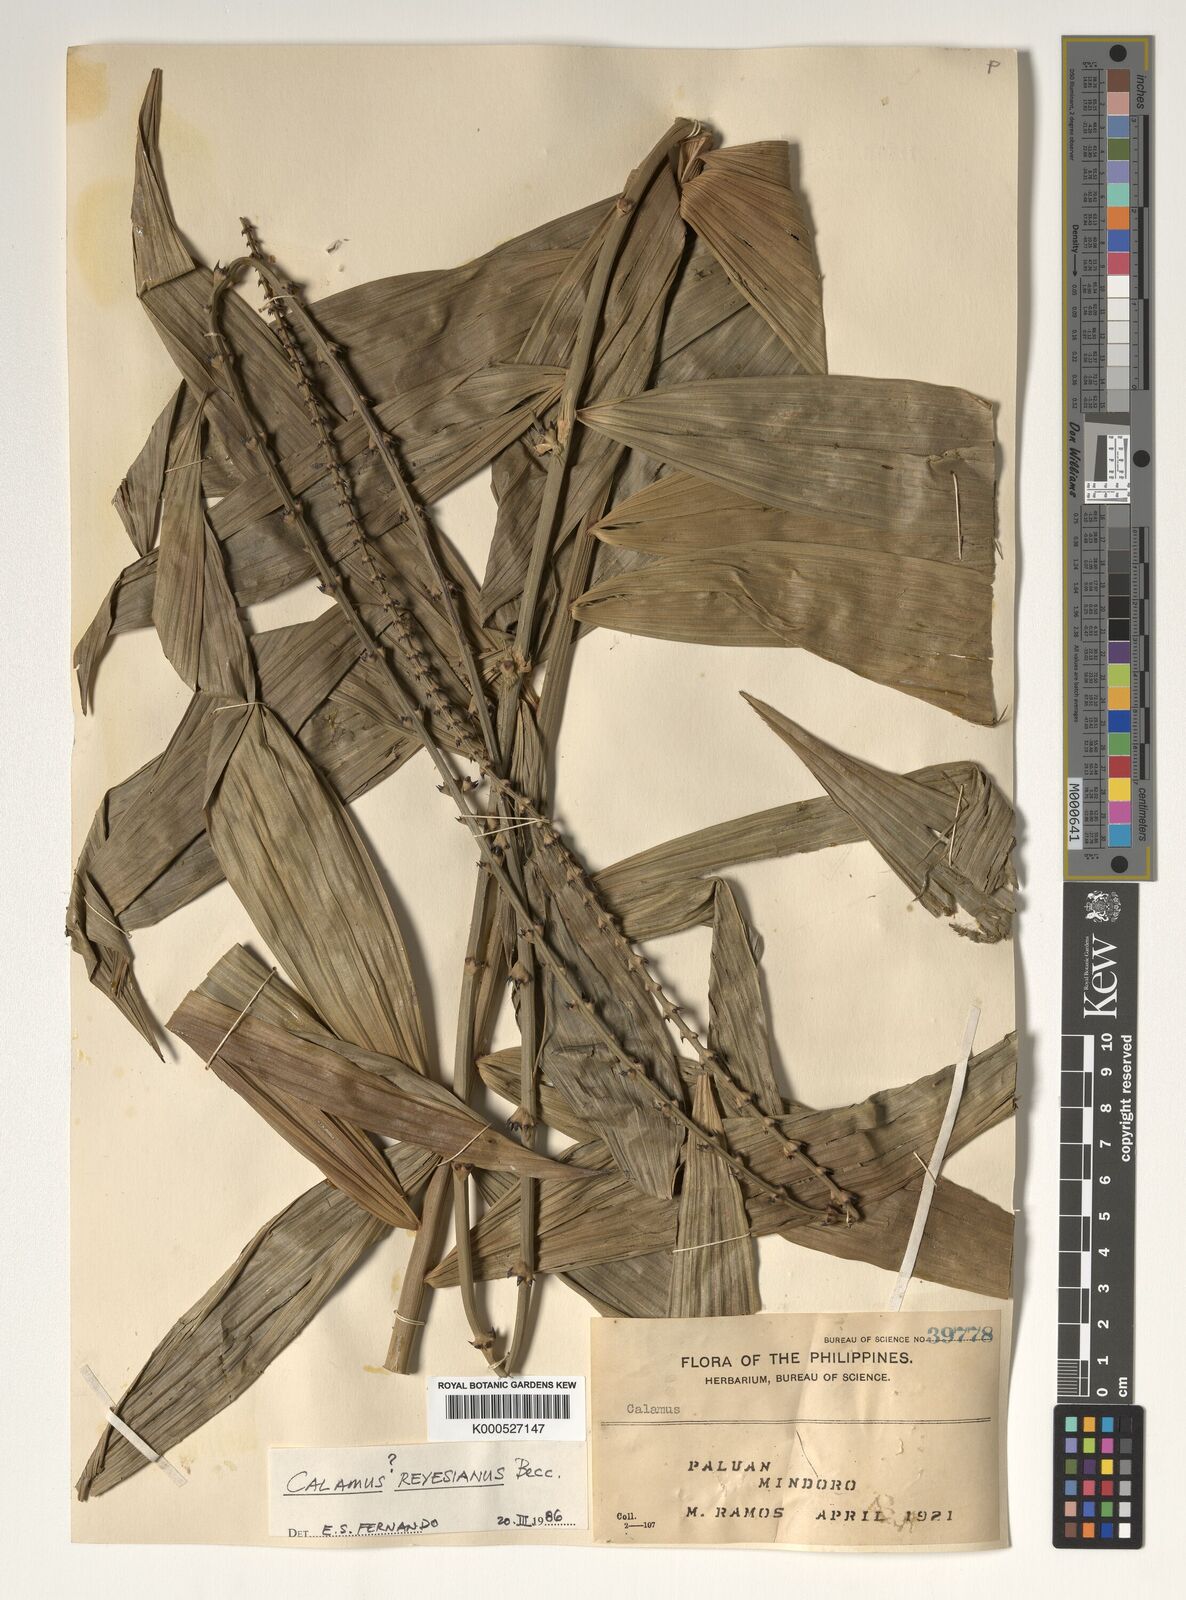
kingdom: Plantae
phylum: Tracheophyta
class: Liliopsida
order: Arecales
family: Arecaceae
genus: Calamus
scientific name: Calamus moseleyanus
